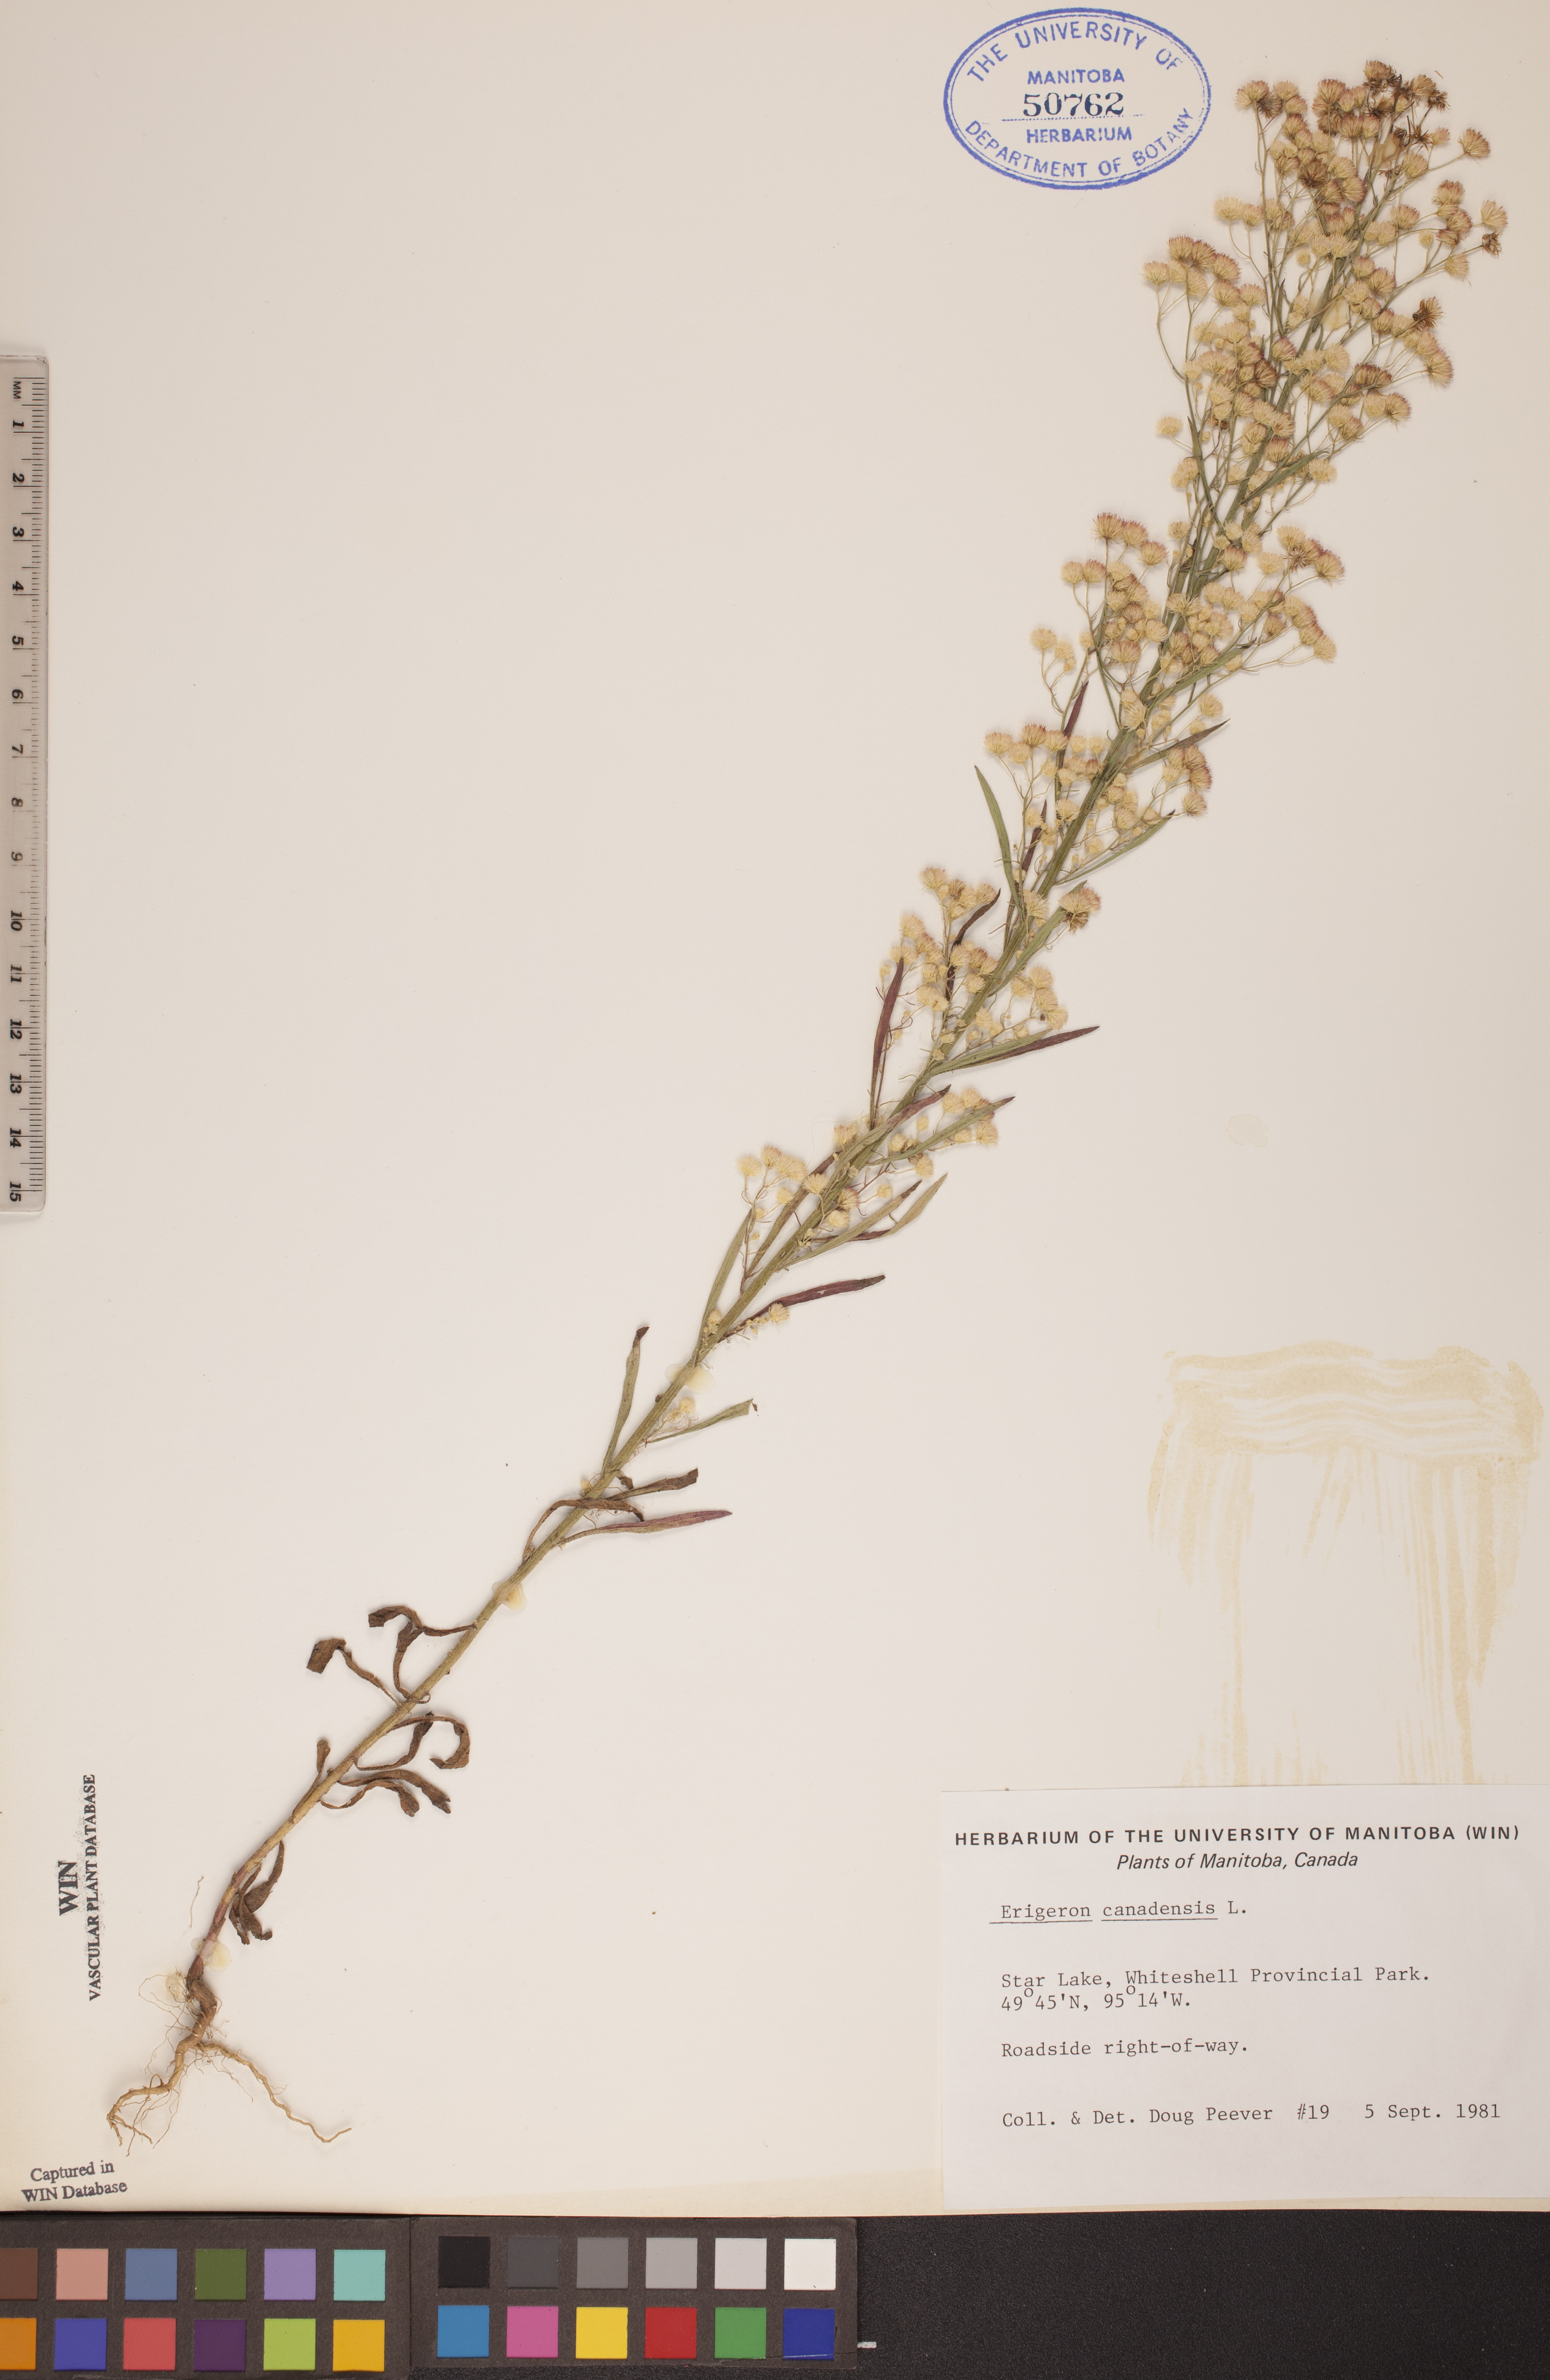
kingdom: Plantae
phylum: Tracheophyta
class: Magnoliopsida
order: Asterales
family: Asteraceae
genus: Erigeron
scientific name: Erigeron canadensis
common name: Canadian fleabane
